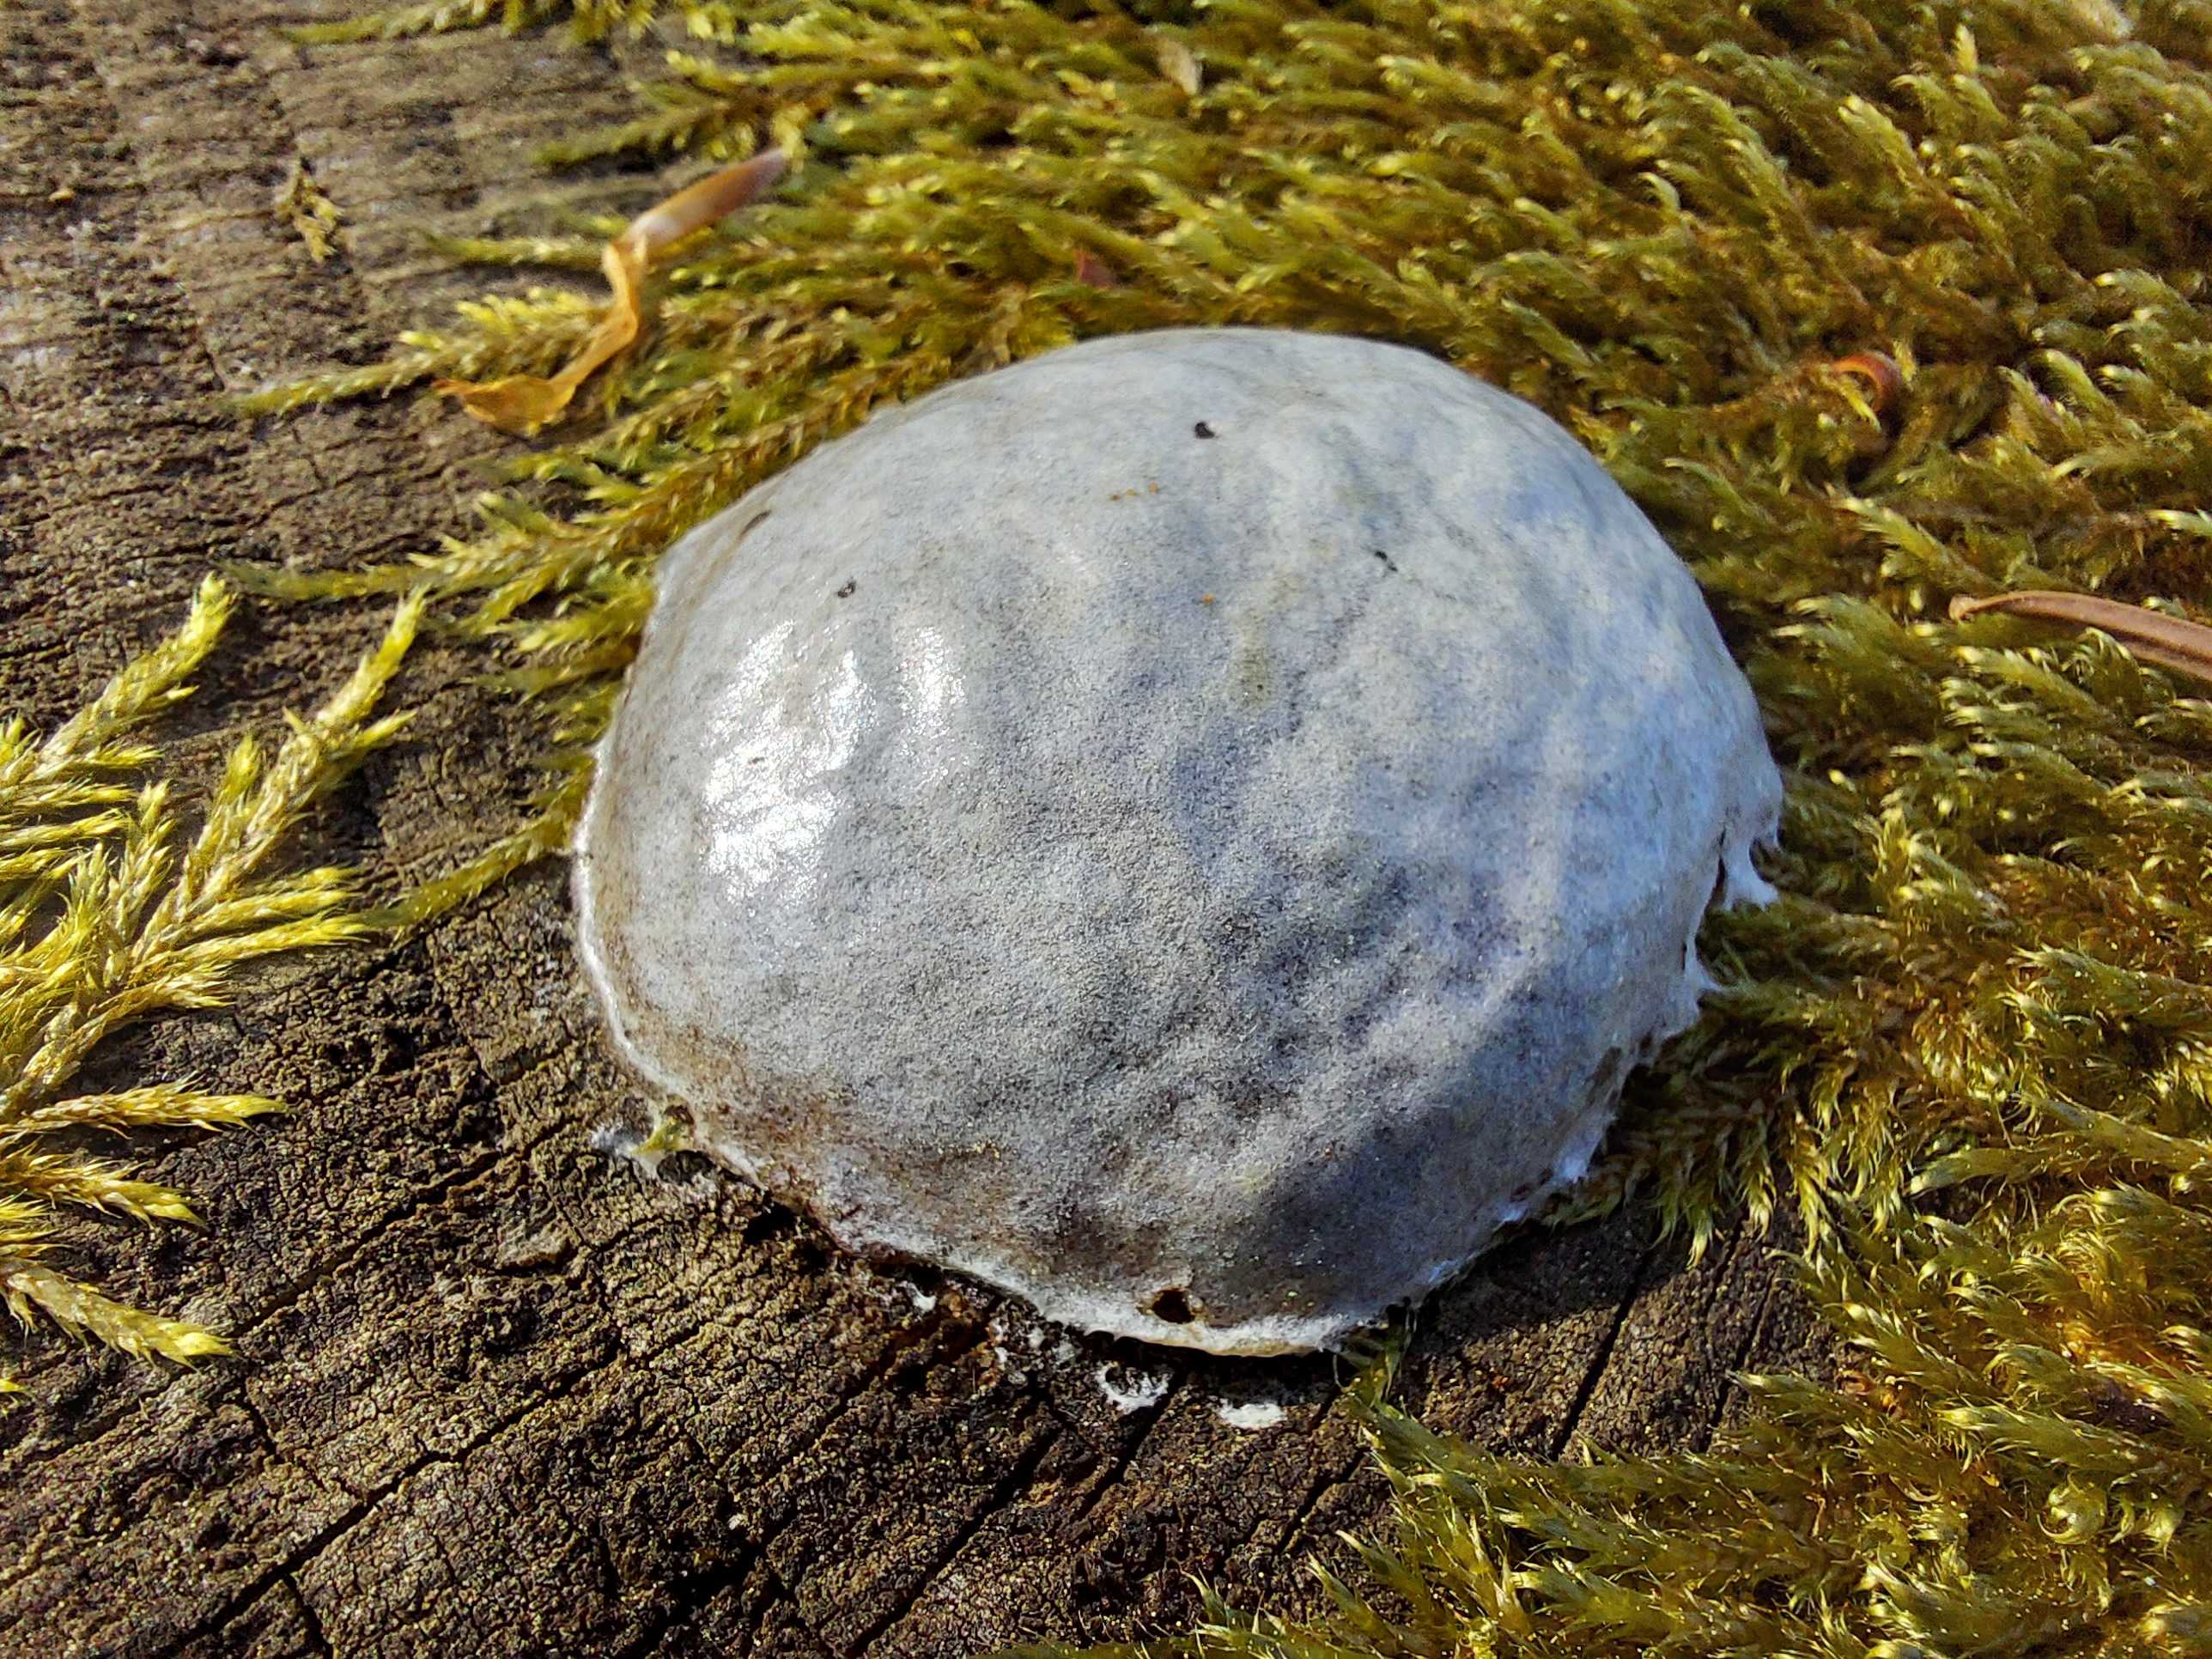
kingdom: Protozoa
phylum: Mycetozoa
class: Myxomycetes
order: Cribrariales
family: Tubiferaceae
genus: Reticularia
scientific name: Reticularia lycoperdon
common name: skinnende støvpude
